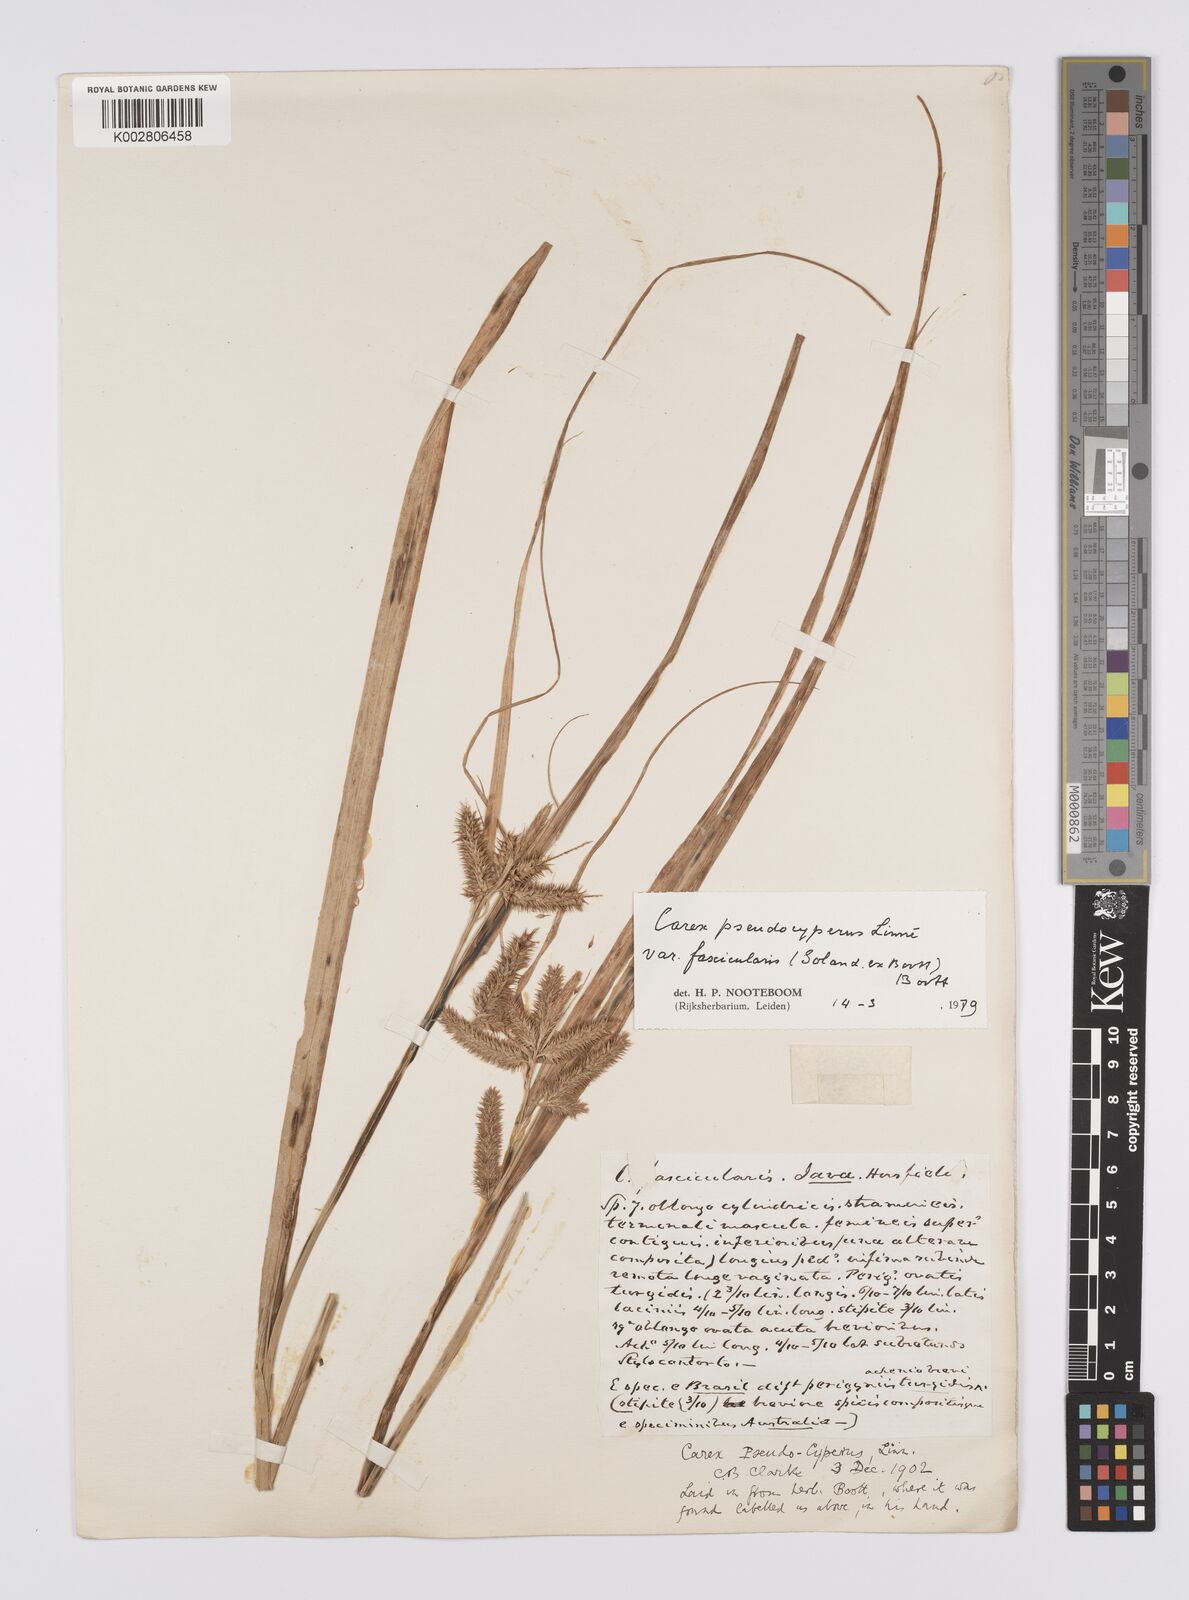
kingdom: Plantae
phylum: Tracheophyta
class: Liliopsida
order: Poales
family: Cyperaceae
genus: Carex
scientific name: Carex fascicularis
